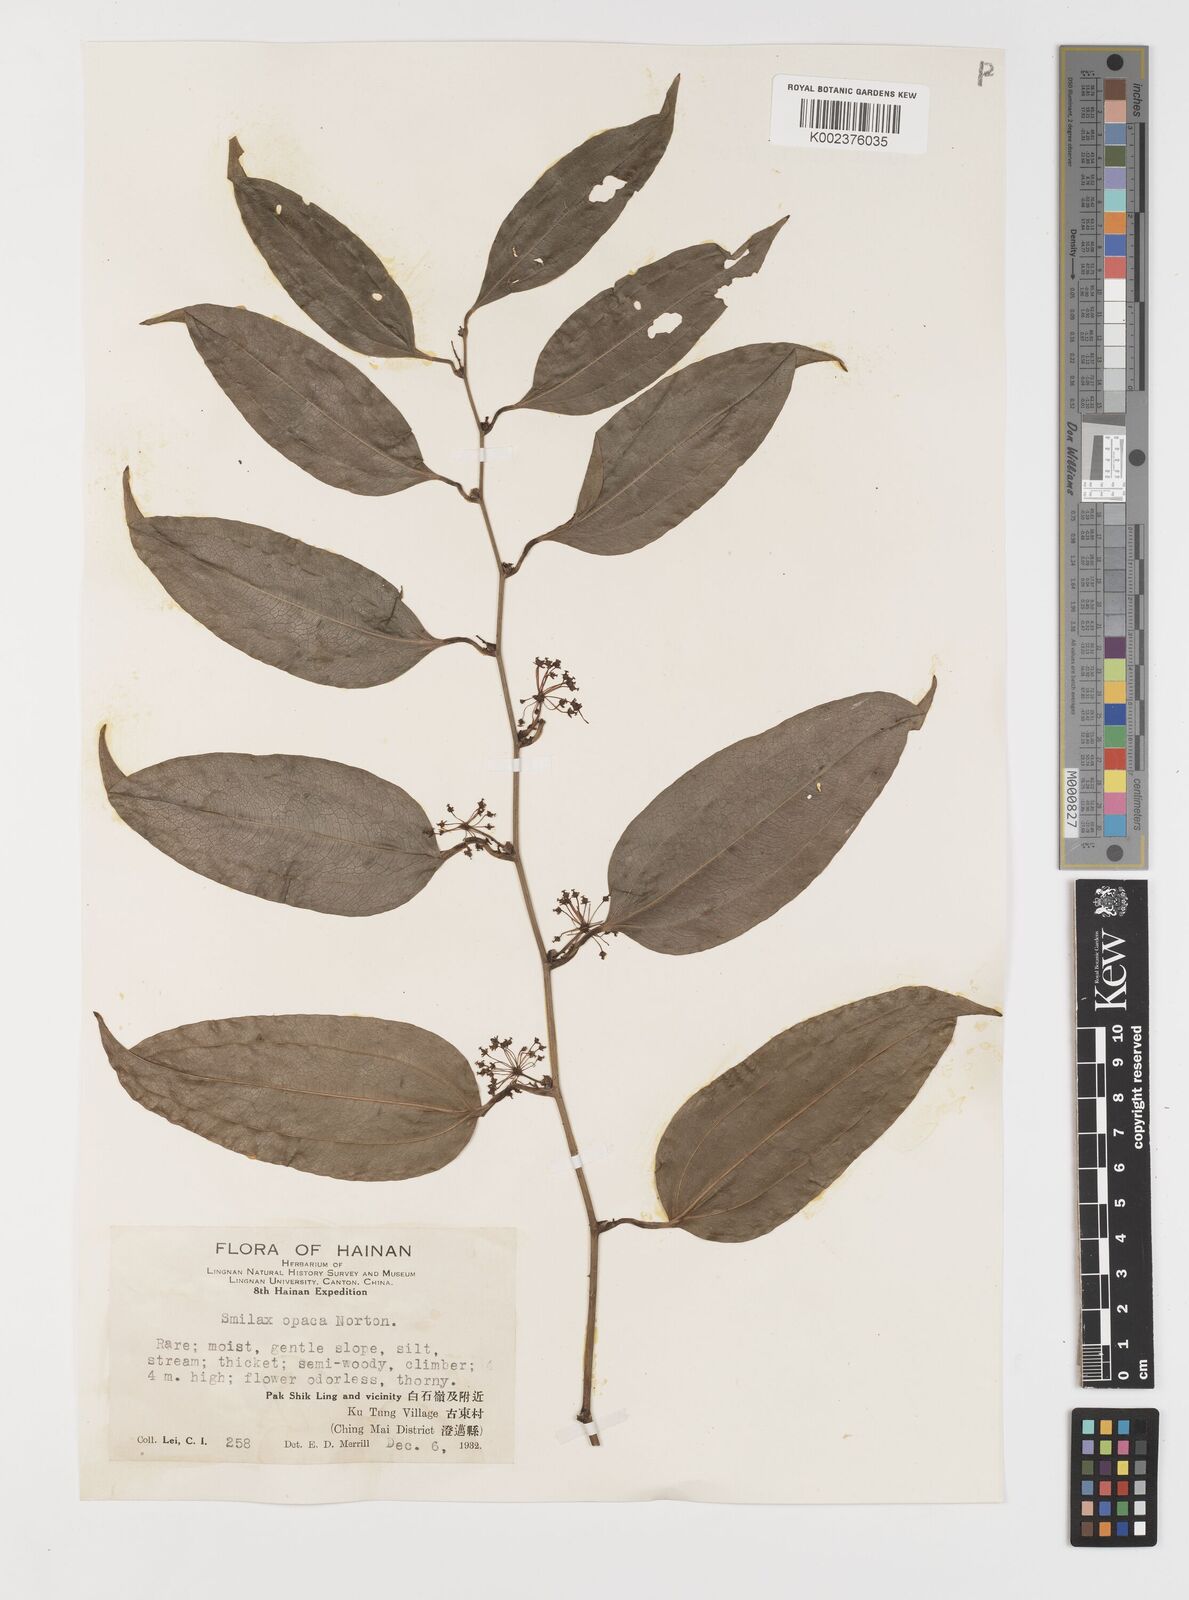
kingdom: Plantae
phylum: Tracheophyta
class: Liliopsida
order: Liliales
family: Smilacaceae
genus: Smilax
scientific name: Smilax laevis
